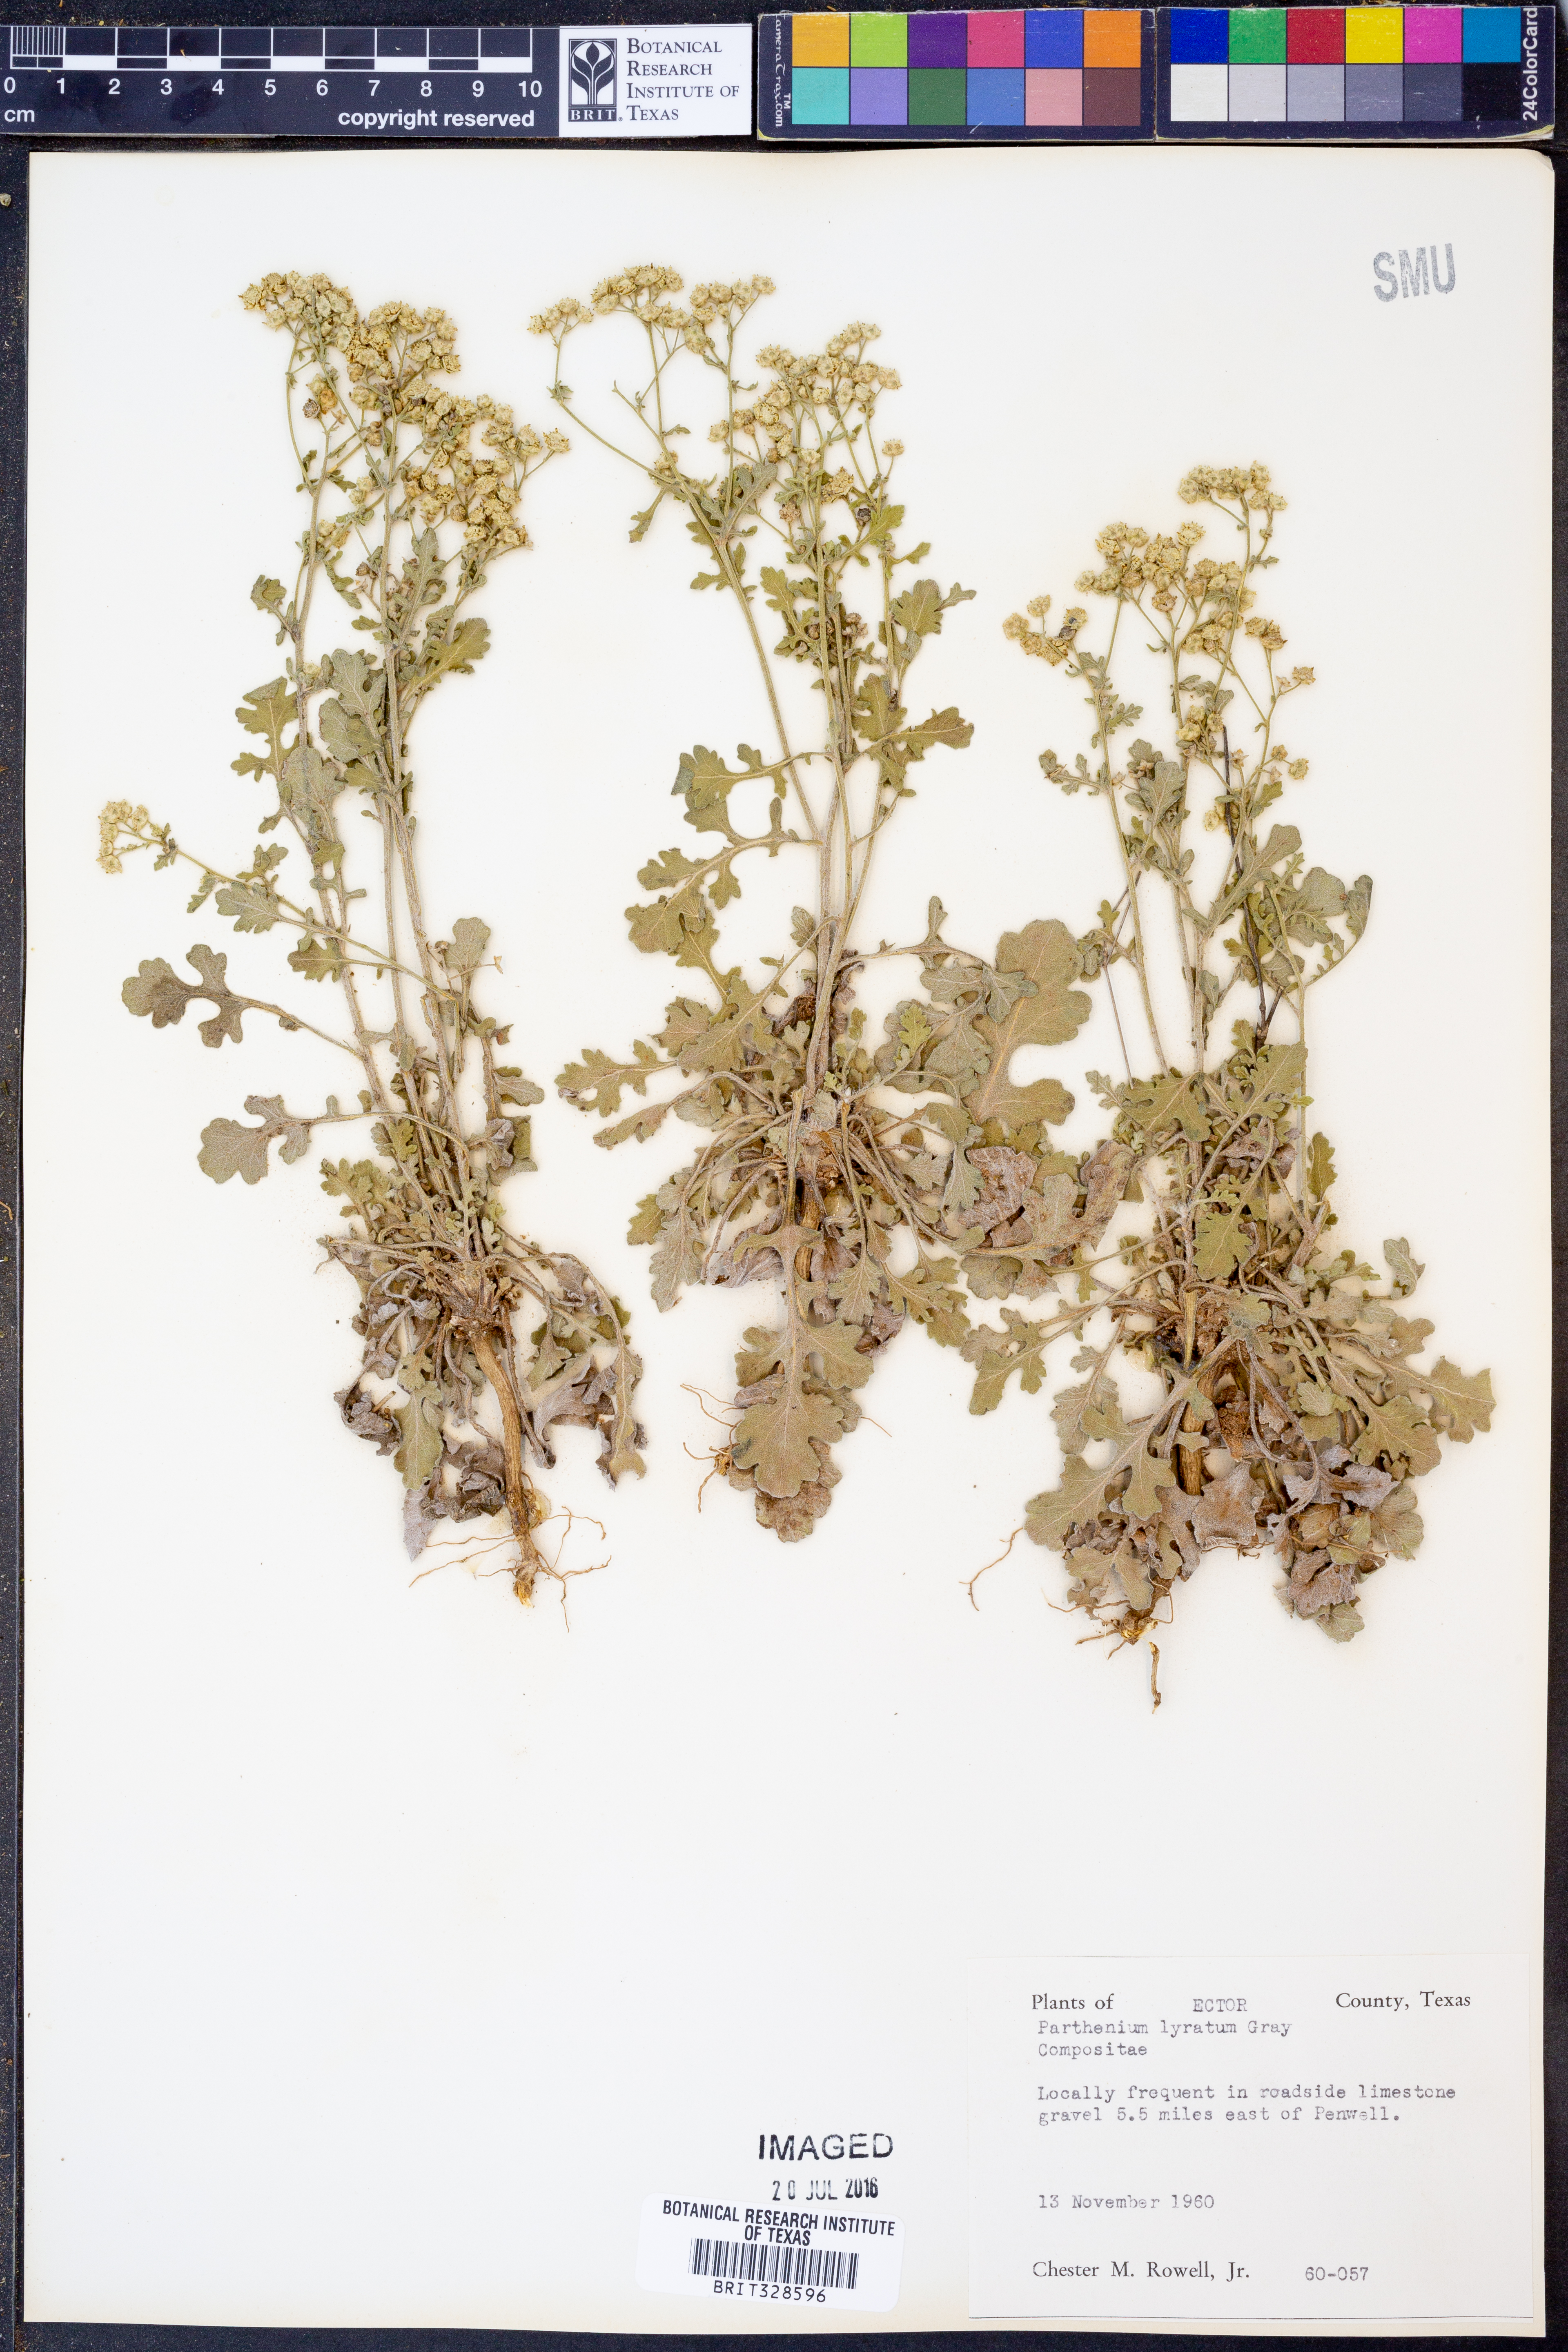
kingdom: Plantae
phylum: Tracheophyta
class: Magnoliopsida
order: Asterales
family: Asteraceae
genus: Parthenium
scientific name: Parthenium confertum
